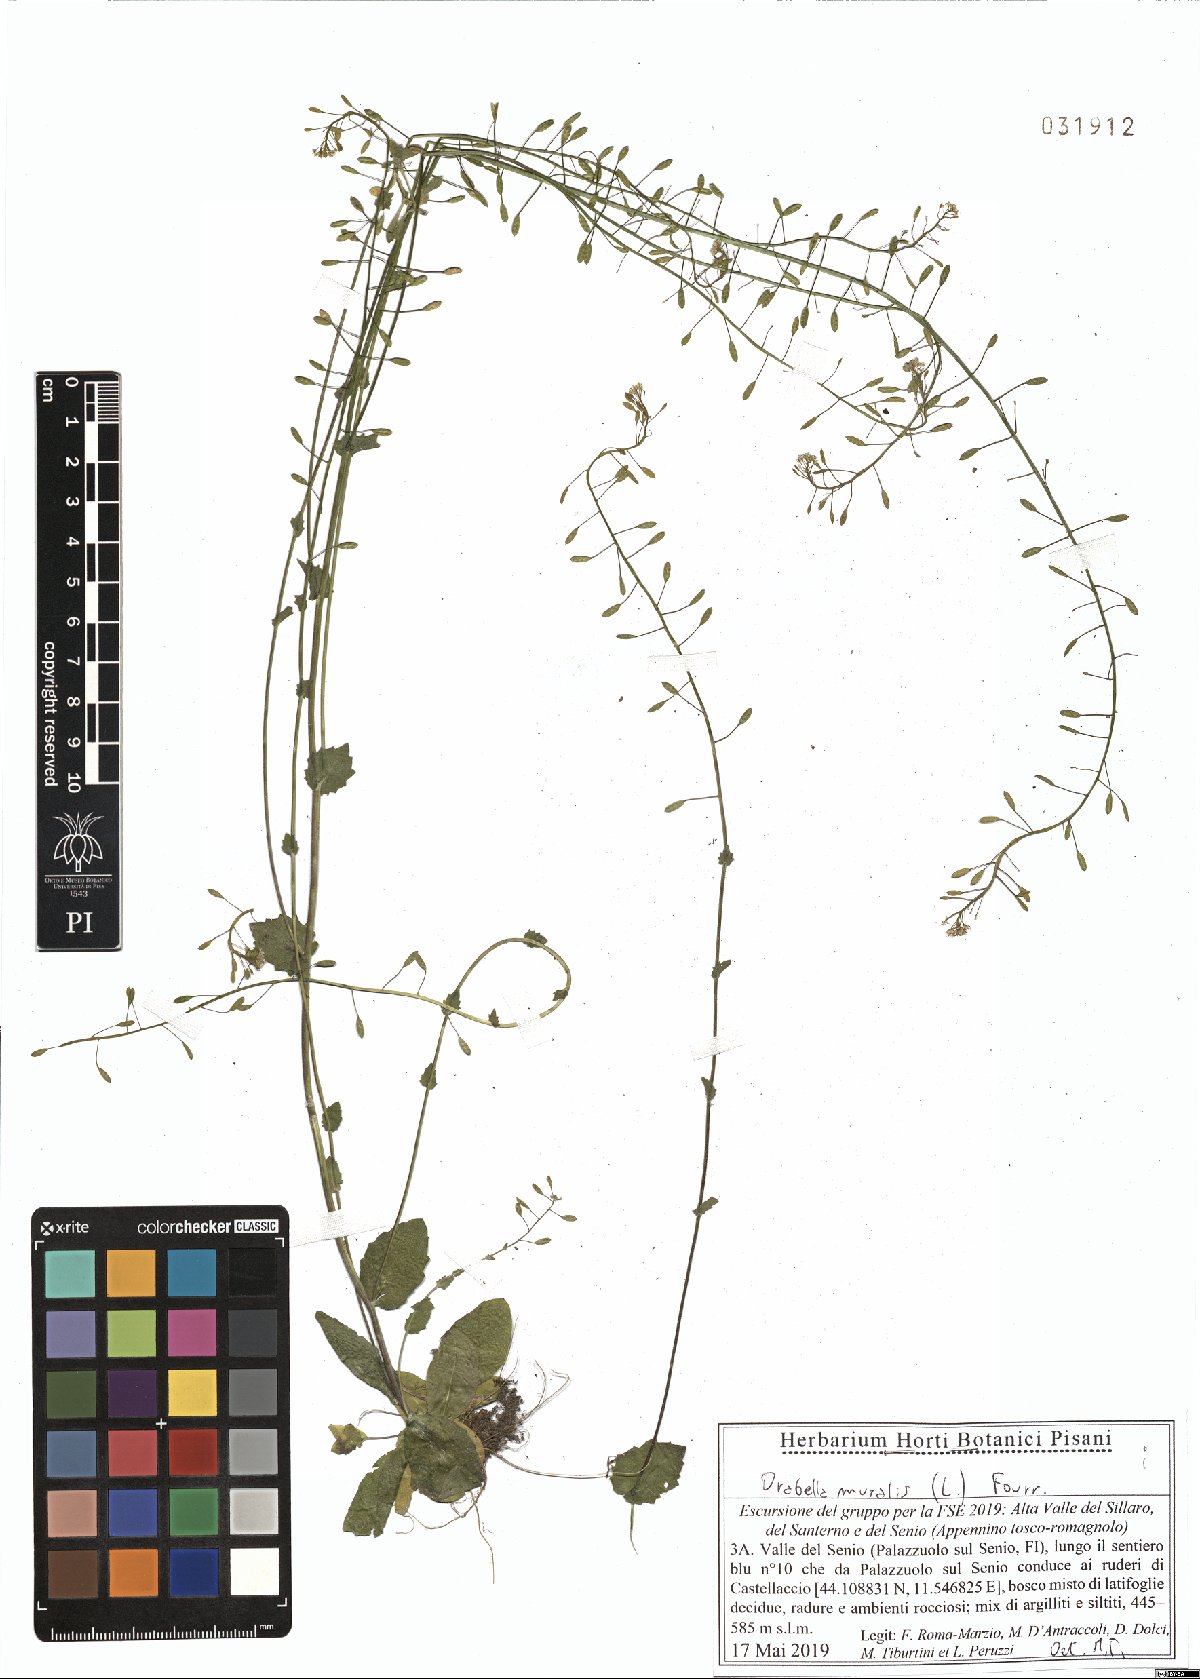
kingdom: Plantae
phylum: Tracheophyta
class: Magnoliopsida
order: Brassicales
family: Brassicaceae
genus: Drabella
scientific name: Drabella muralis
